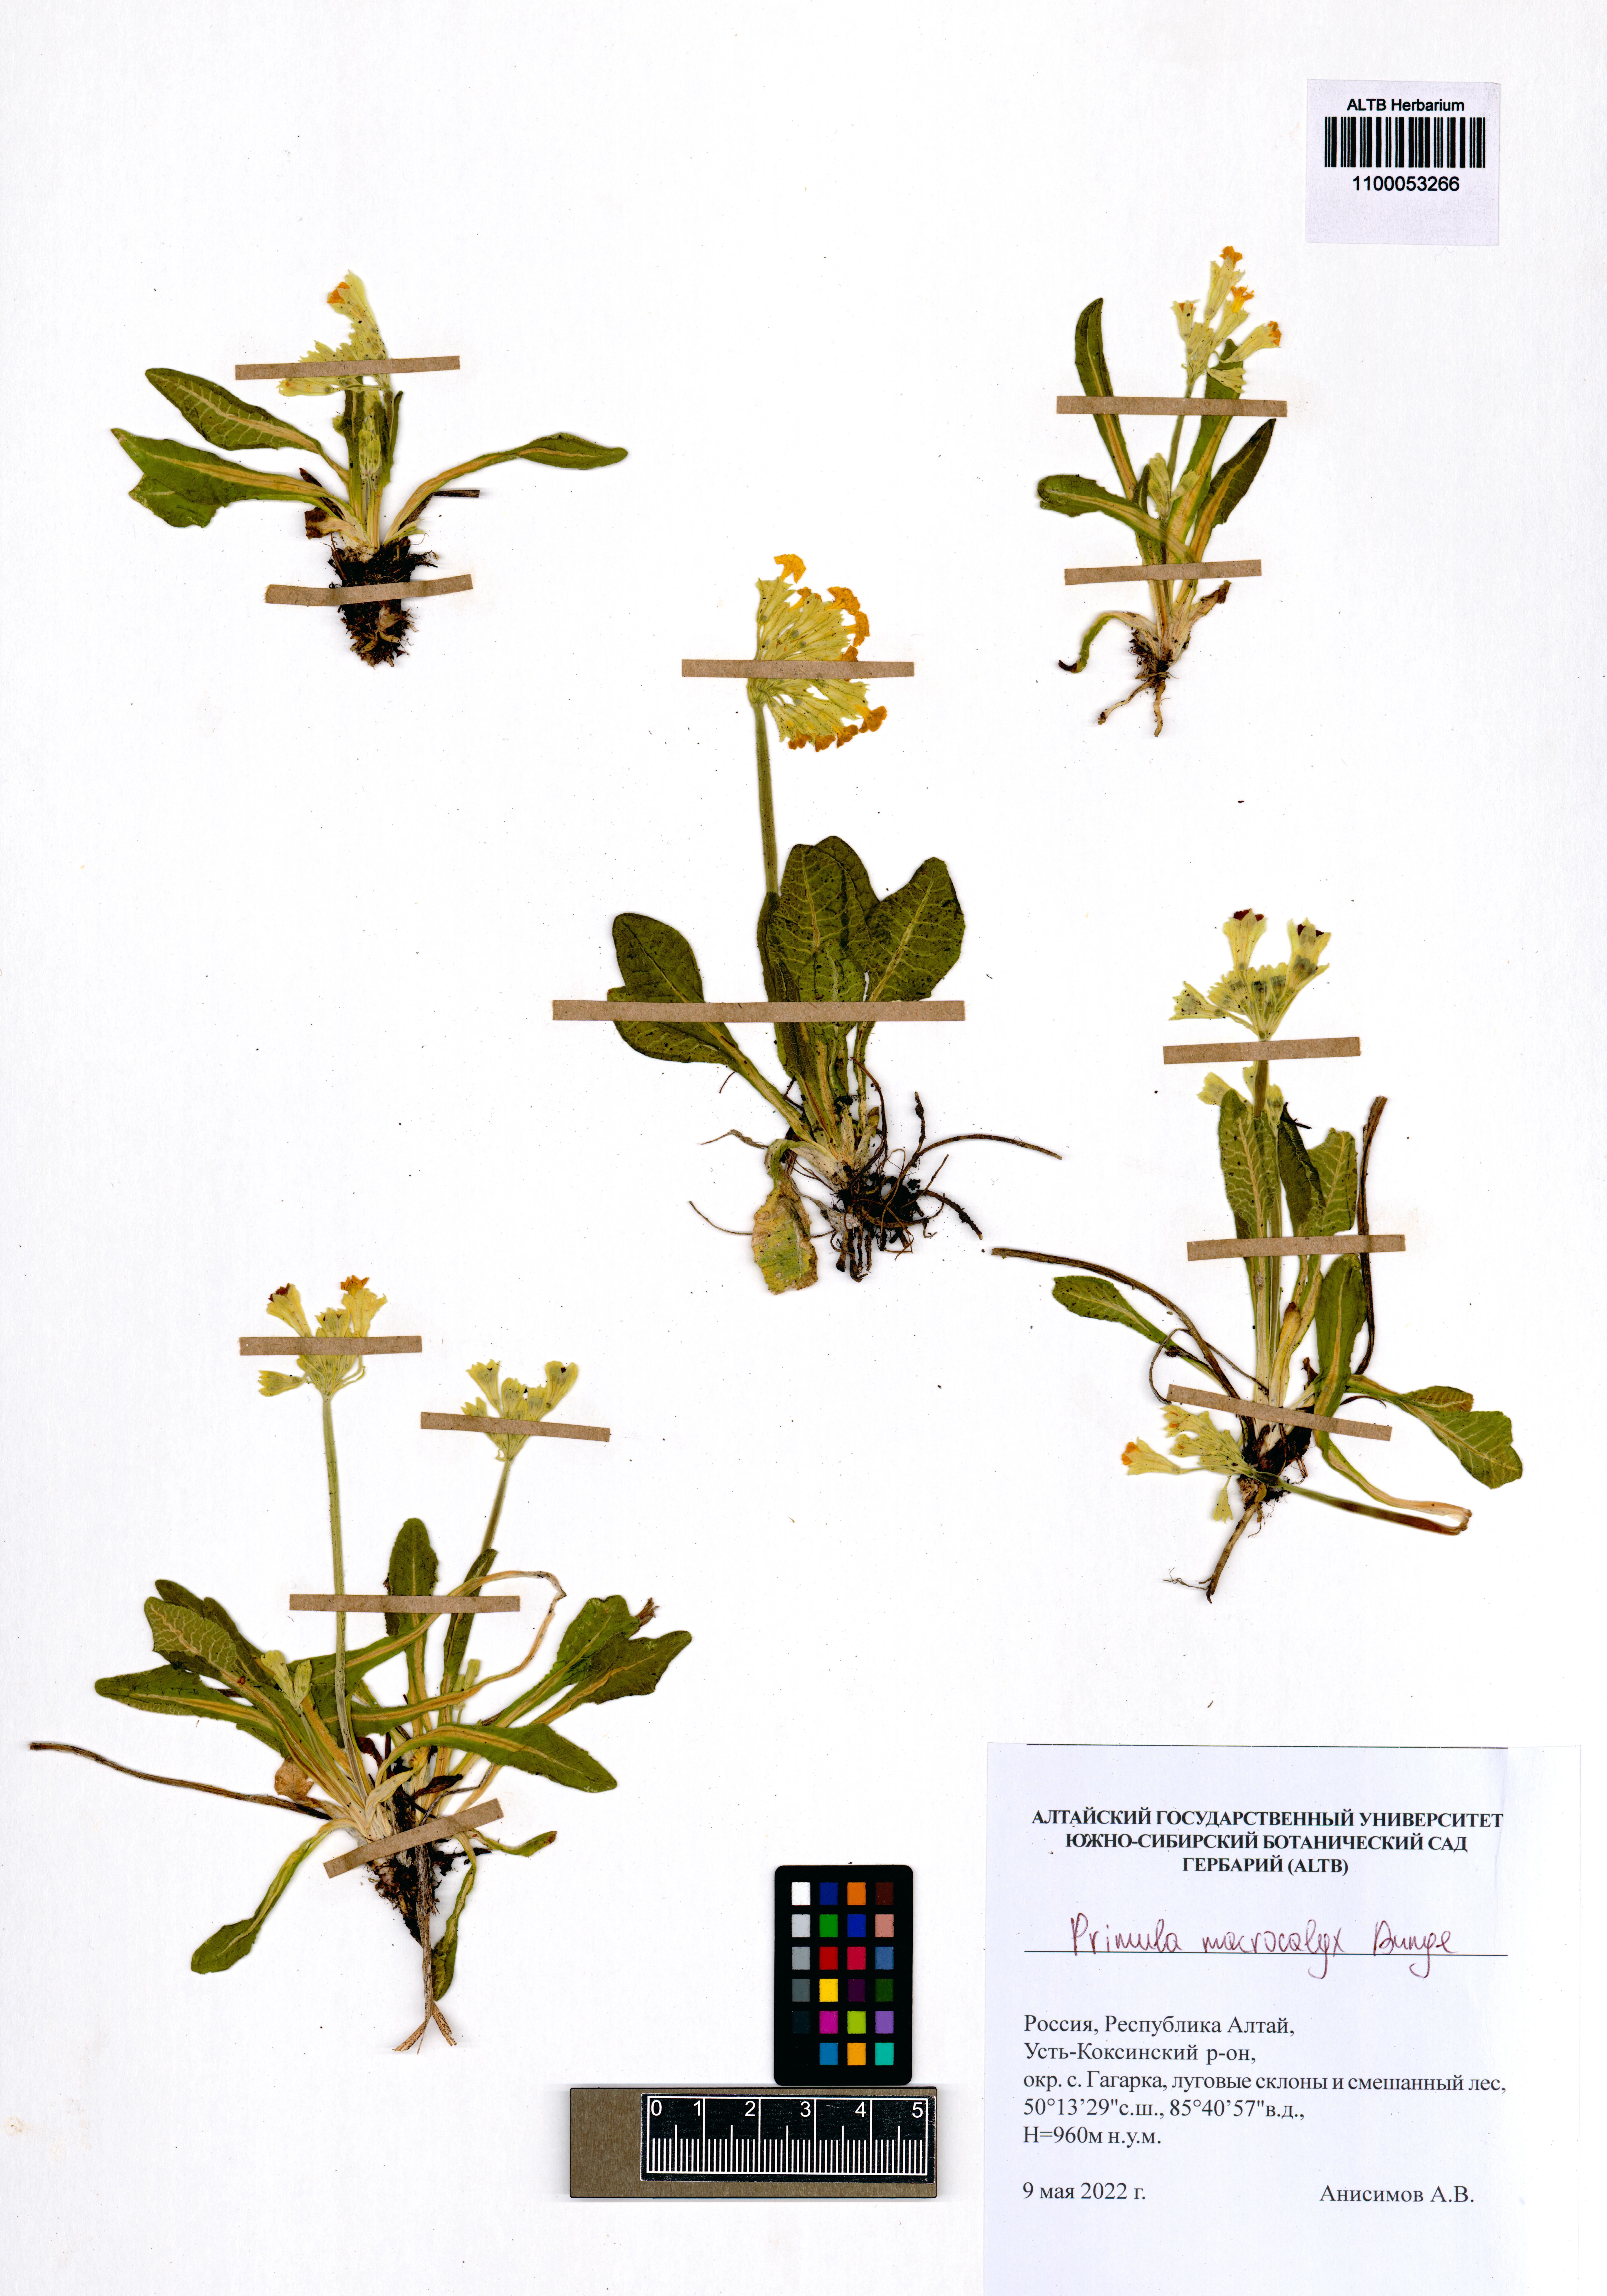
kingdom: Plantae
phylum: Tracheophyta
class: Magnoliopsida
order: Ericales
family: Primulaceae
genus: Primula
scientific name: Primula veris
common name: Cowslip
